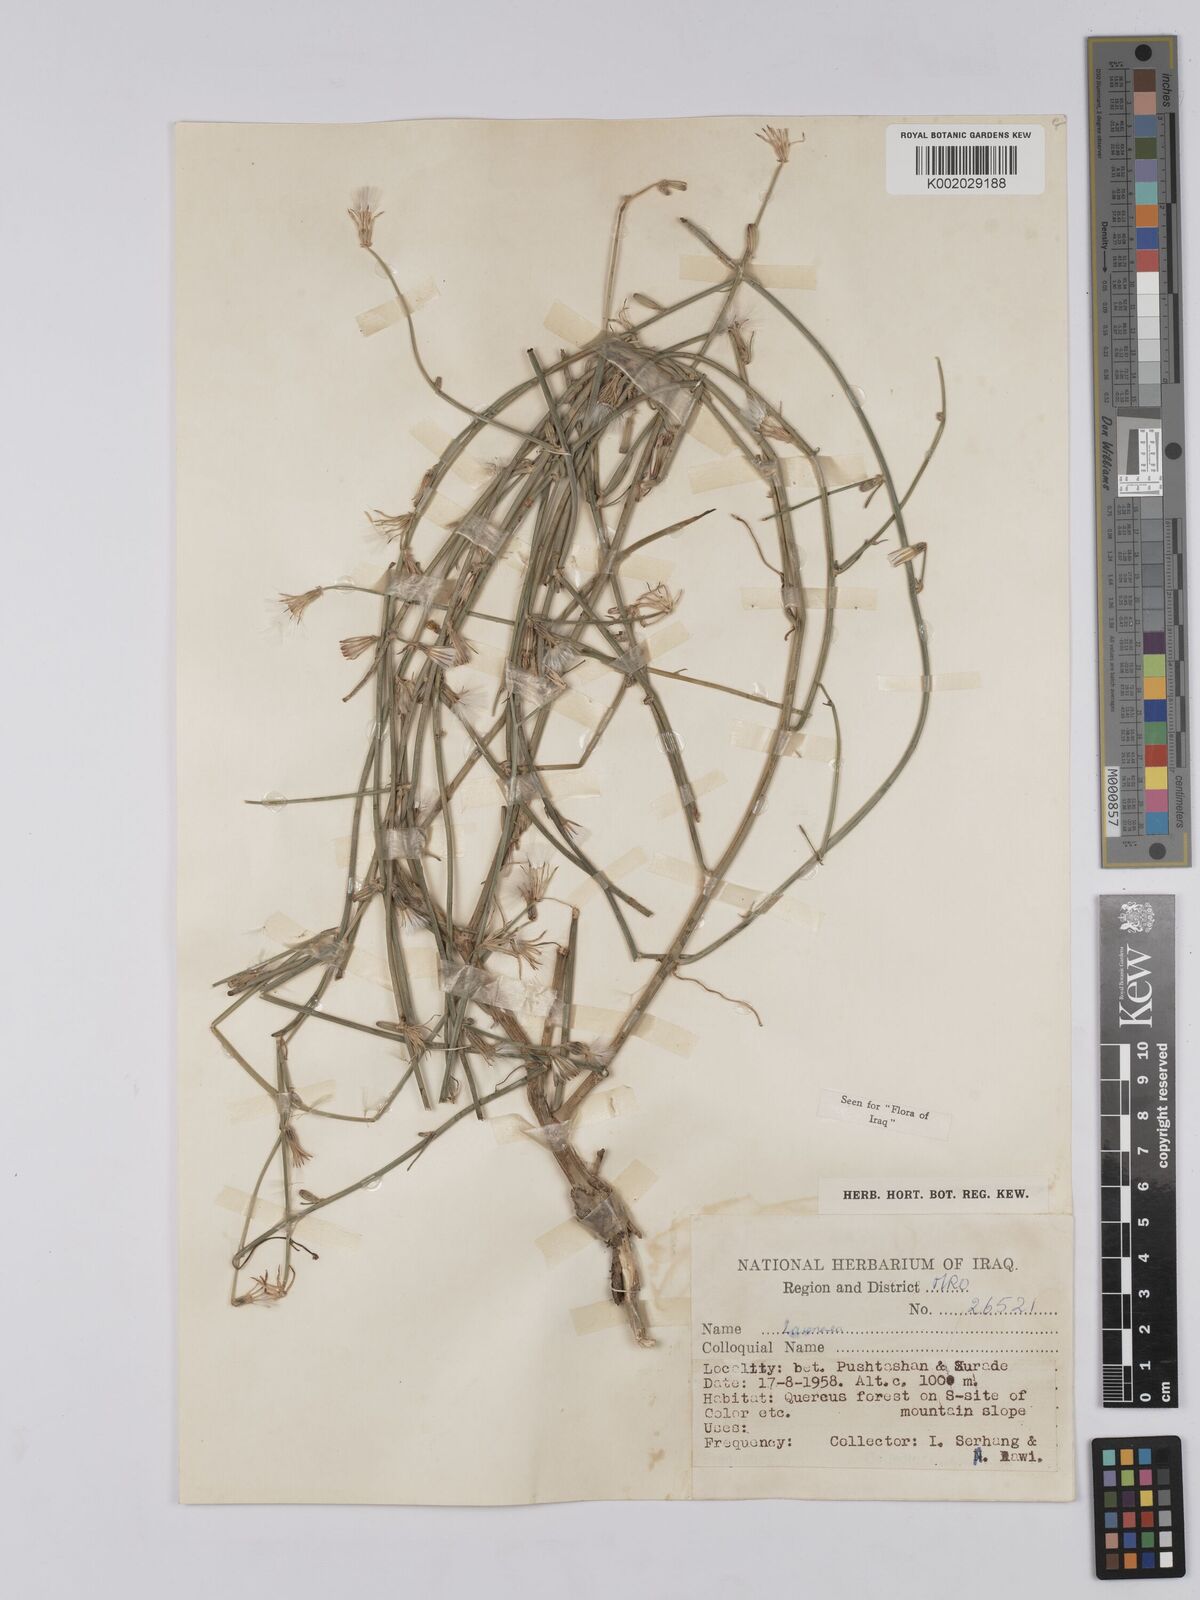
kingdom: Plantae
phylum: Tracheophyta
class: Magnoliopsida
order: Asterales
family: Asteraceae
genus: Chondrilla
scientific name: Chondrilla juncea
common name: Skeleton weed
